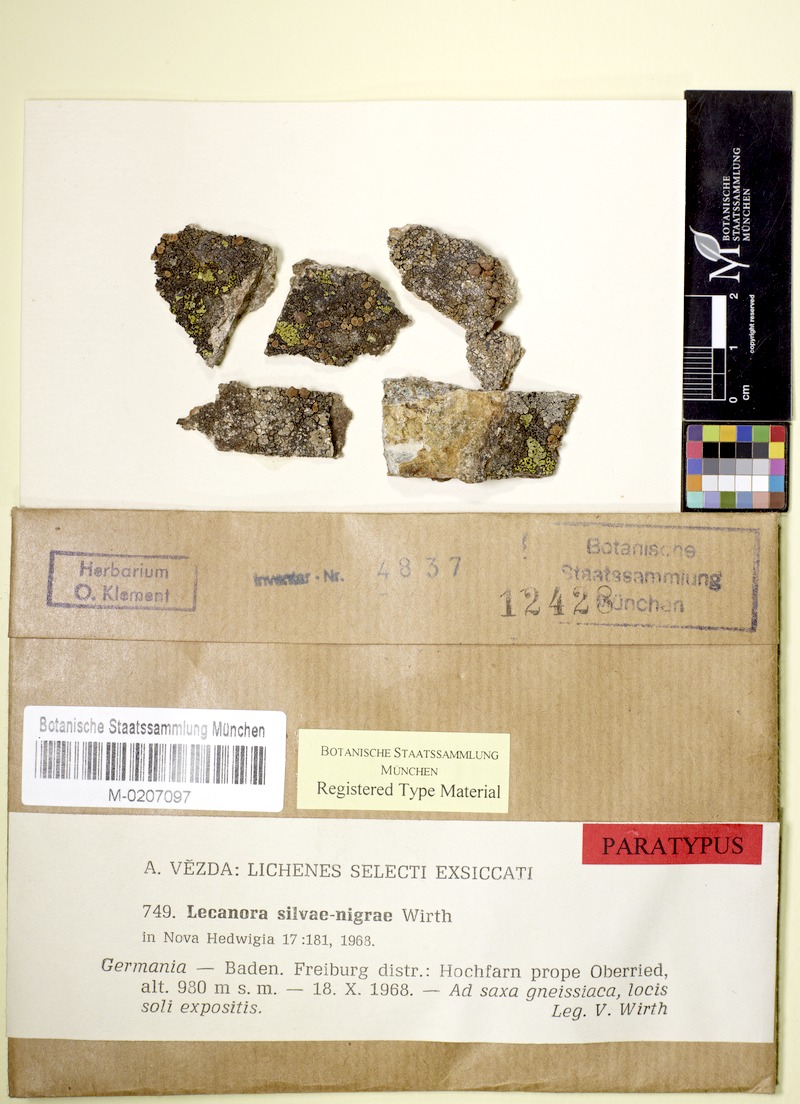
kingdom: Fungi
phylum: Ascomycota
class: Lecanoromycetes
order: Lecanorales
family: Lecanoraceae
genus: Lecanora
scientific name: Lecanora silvae-nigrae
